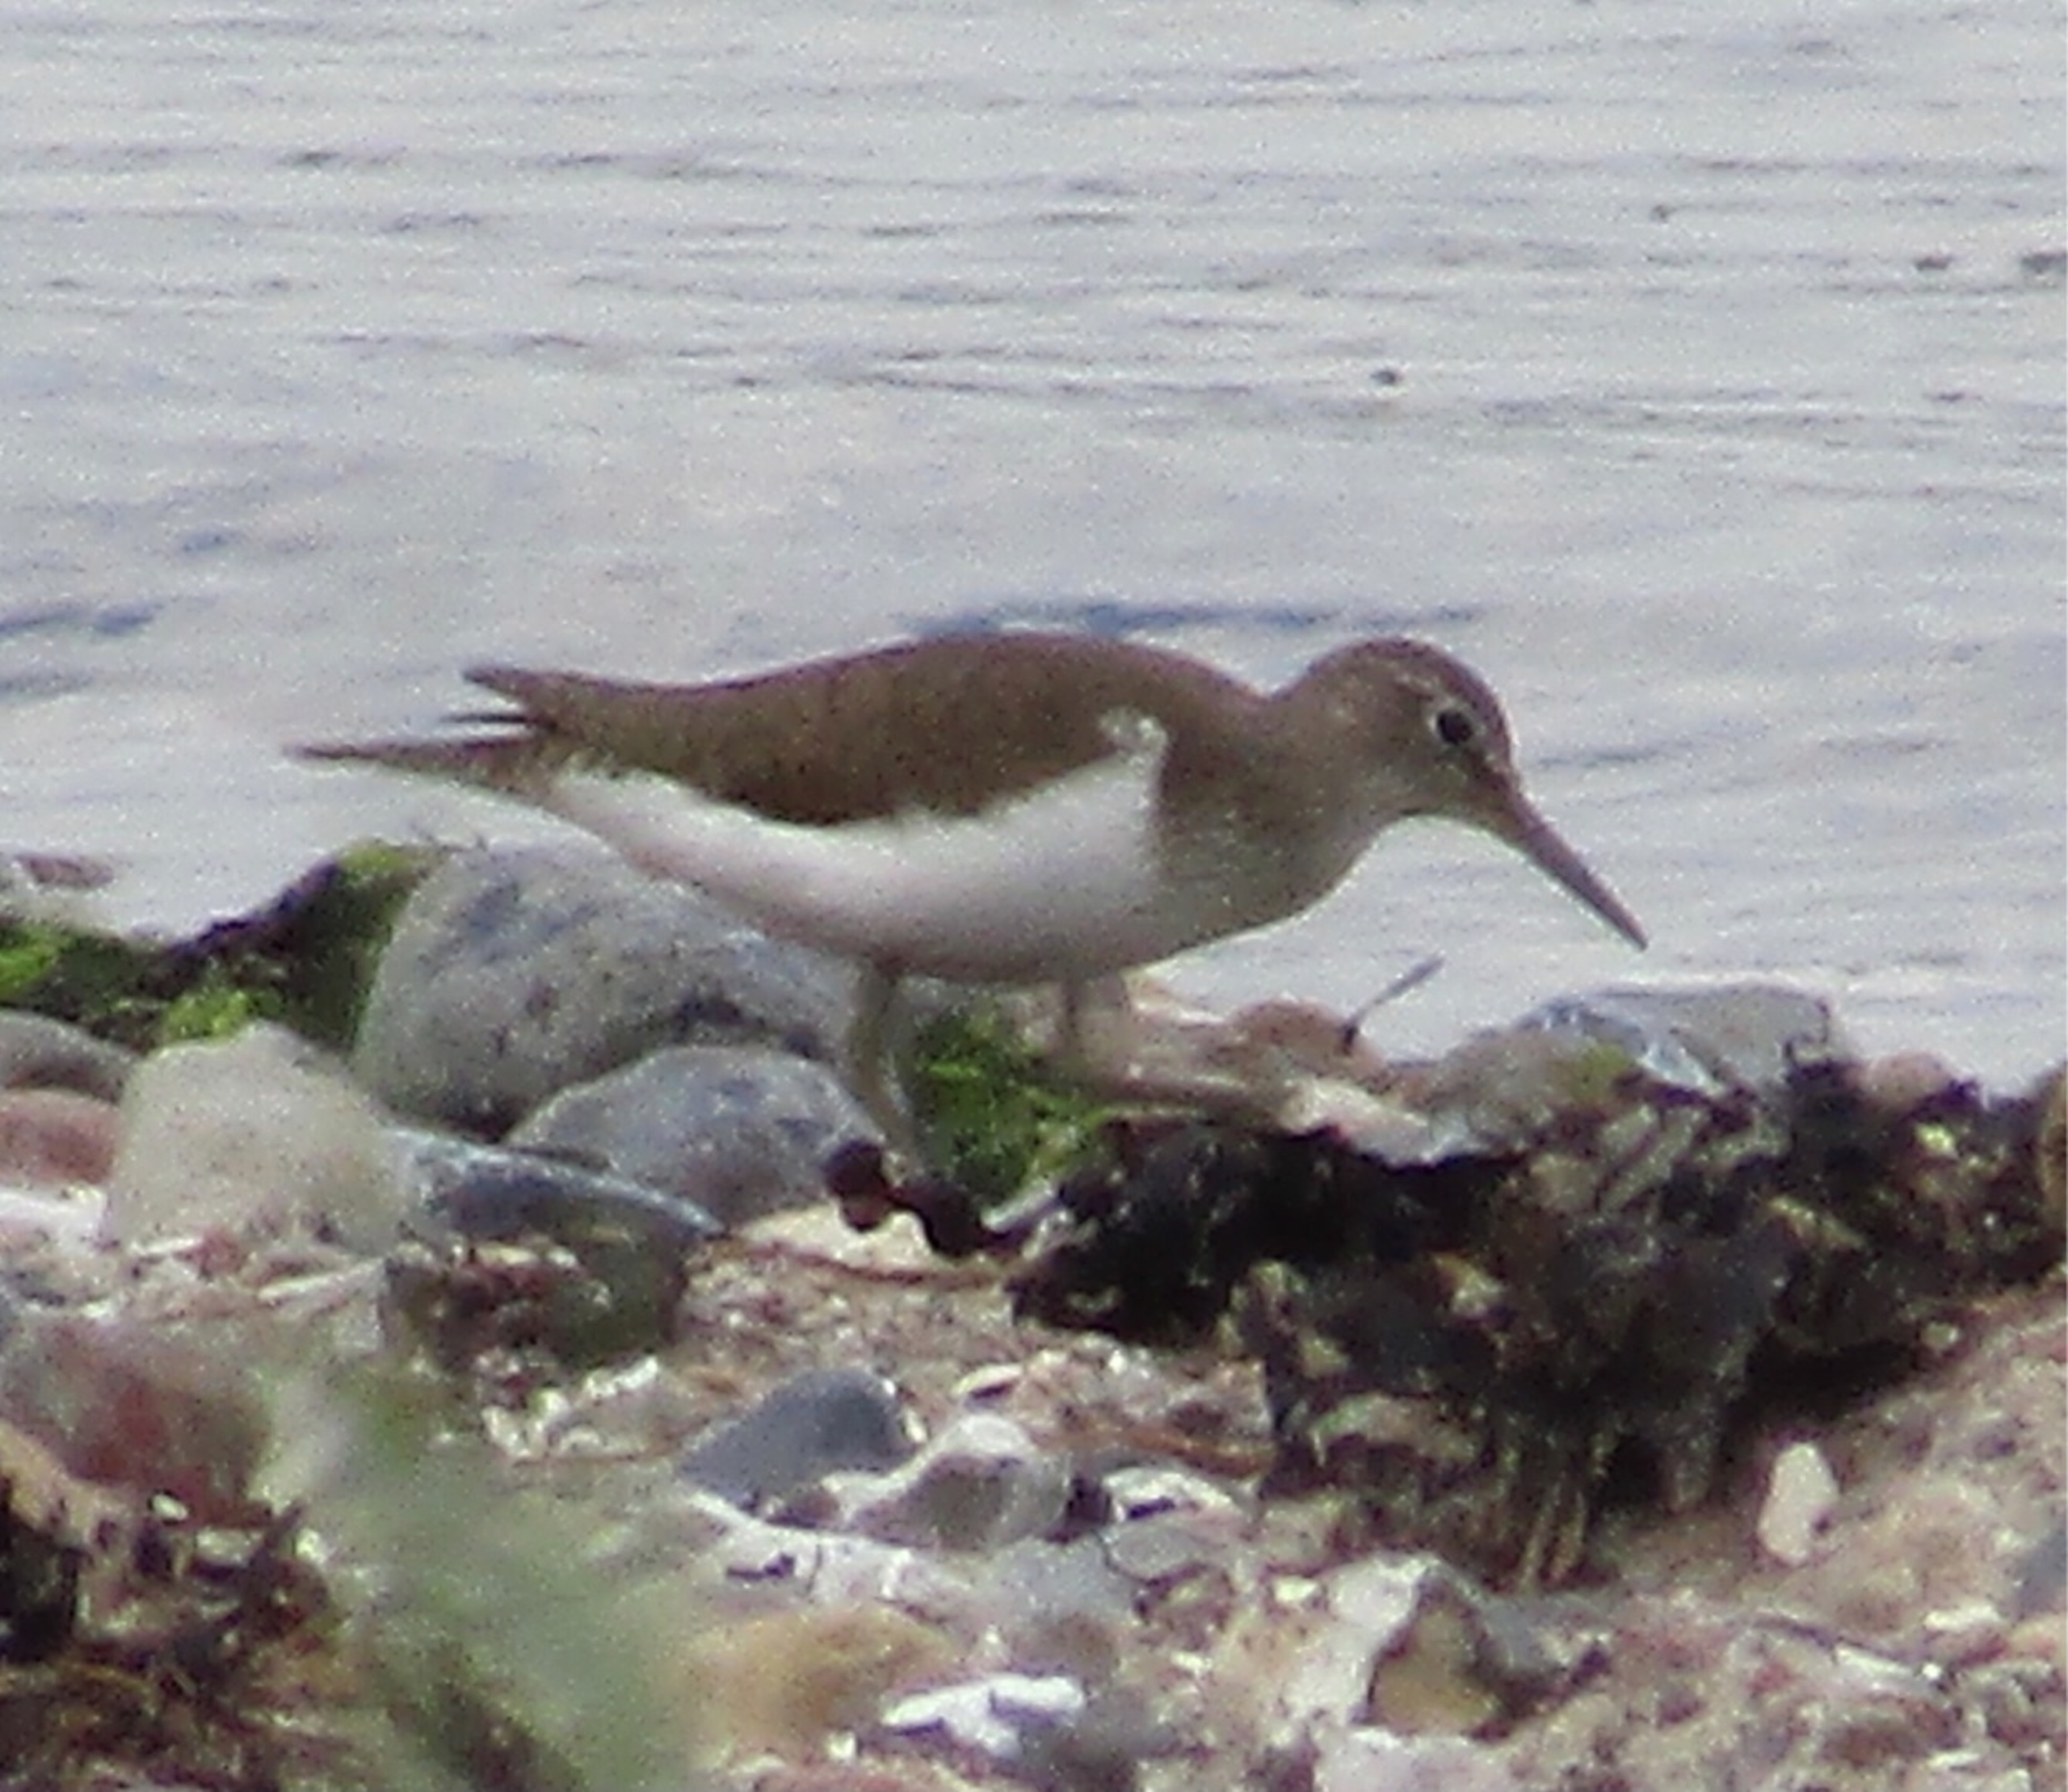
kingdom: Animalia
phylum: Chordata
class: Aves
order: Charadriiformes
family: Scolopacidae
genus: Actitis
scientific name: Actitis hypoleucos
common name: Mudderklire
